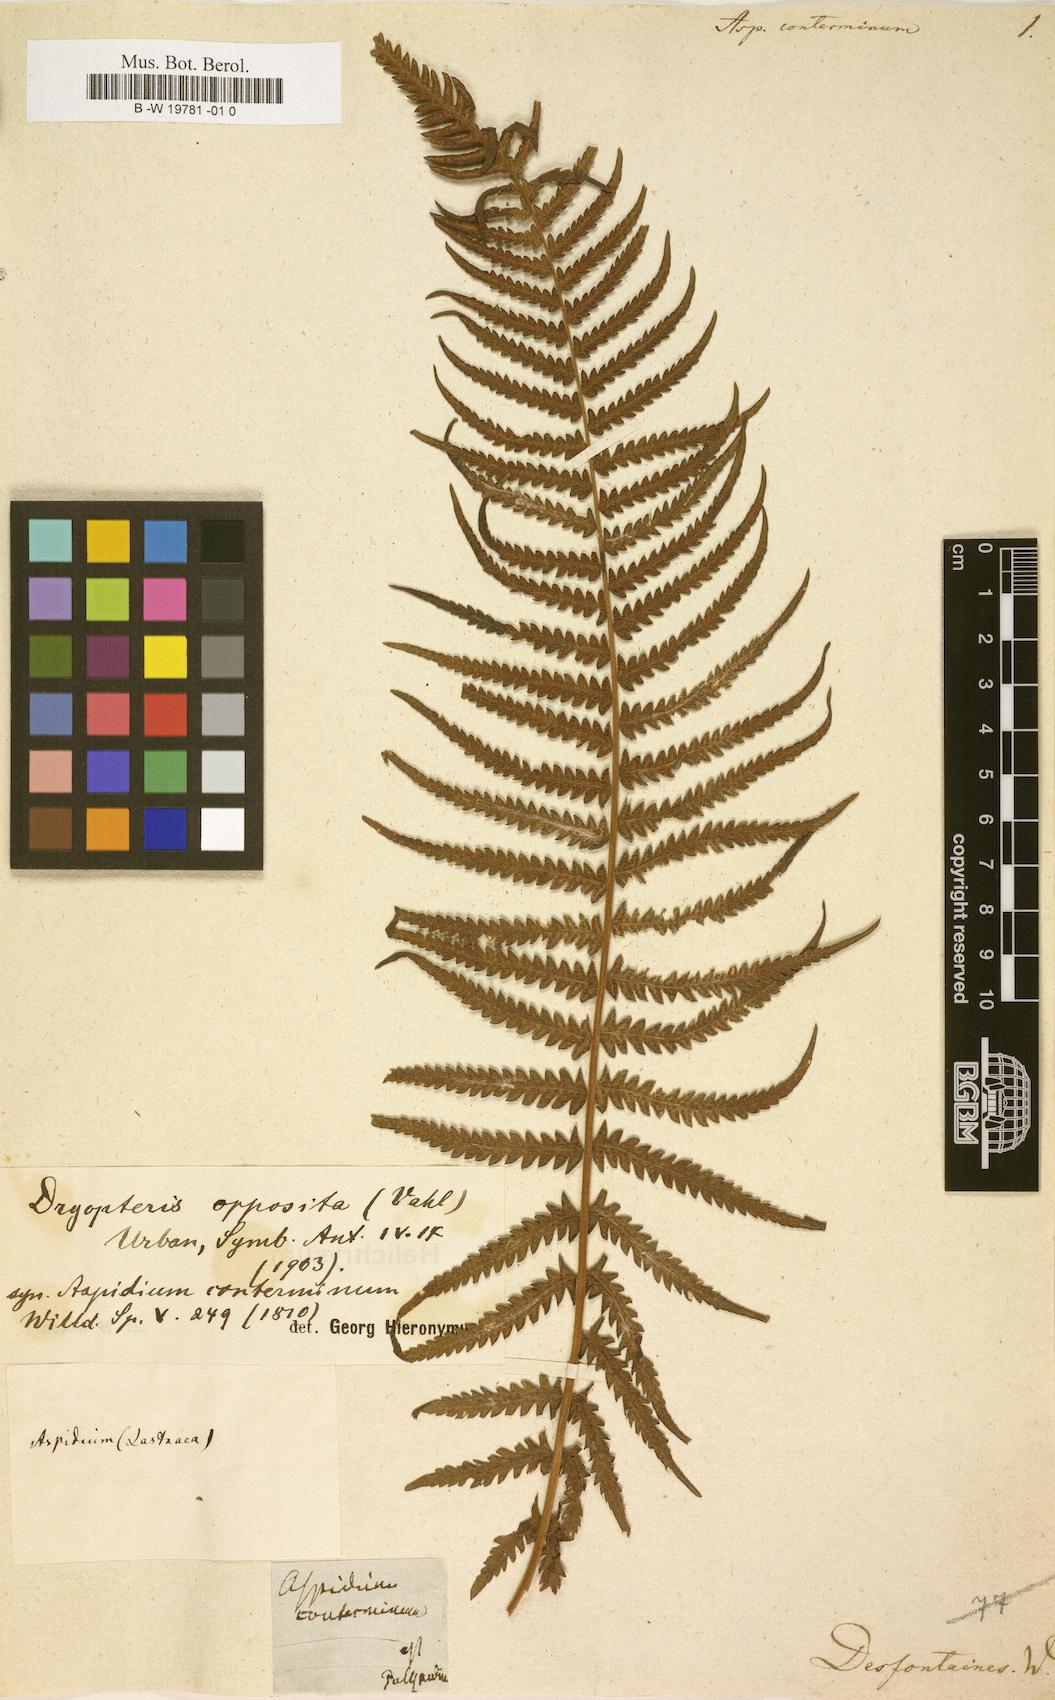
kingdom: Plantae
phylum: Tracheophyta
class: Polypodiopsida
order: Polypodiales
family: Thelypteridaceae
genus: Amauropelta
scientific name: Amauropelta opposita
